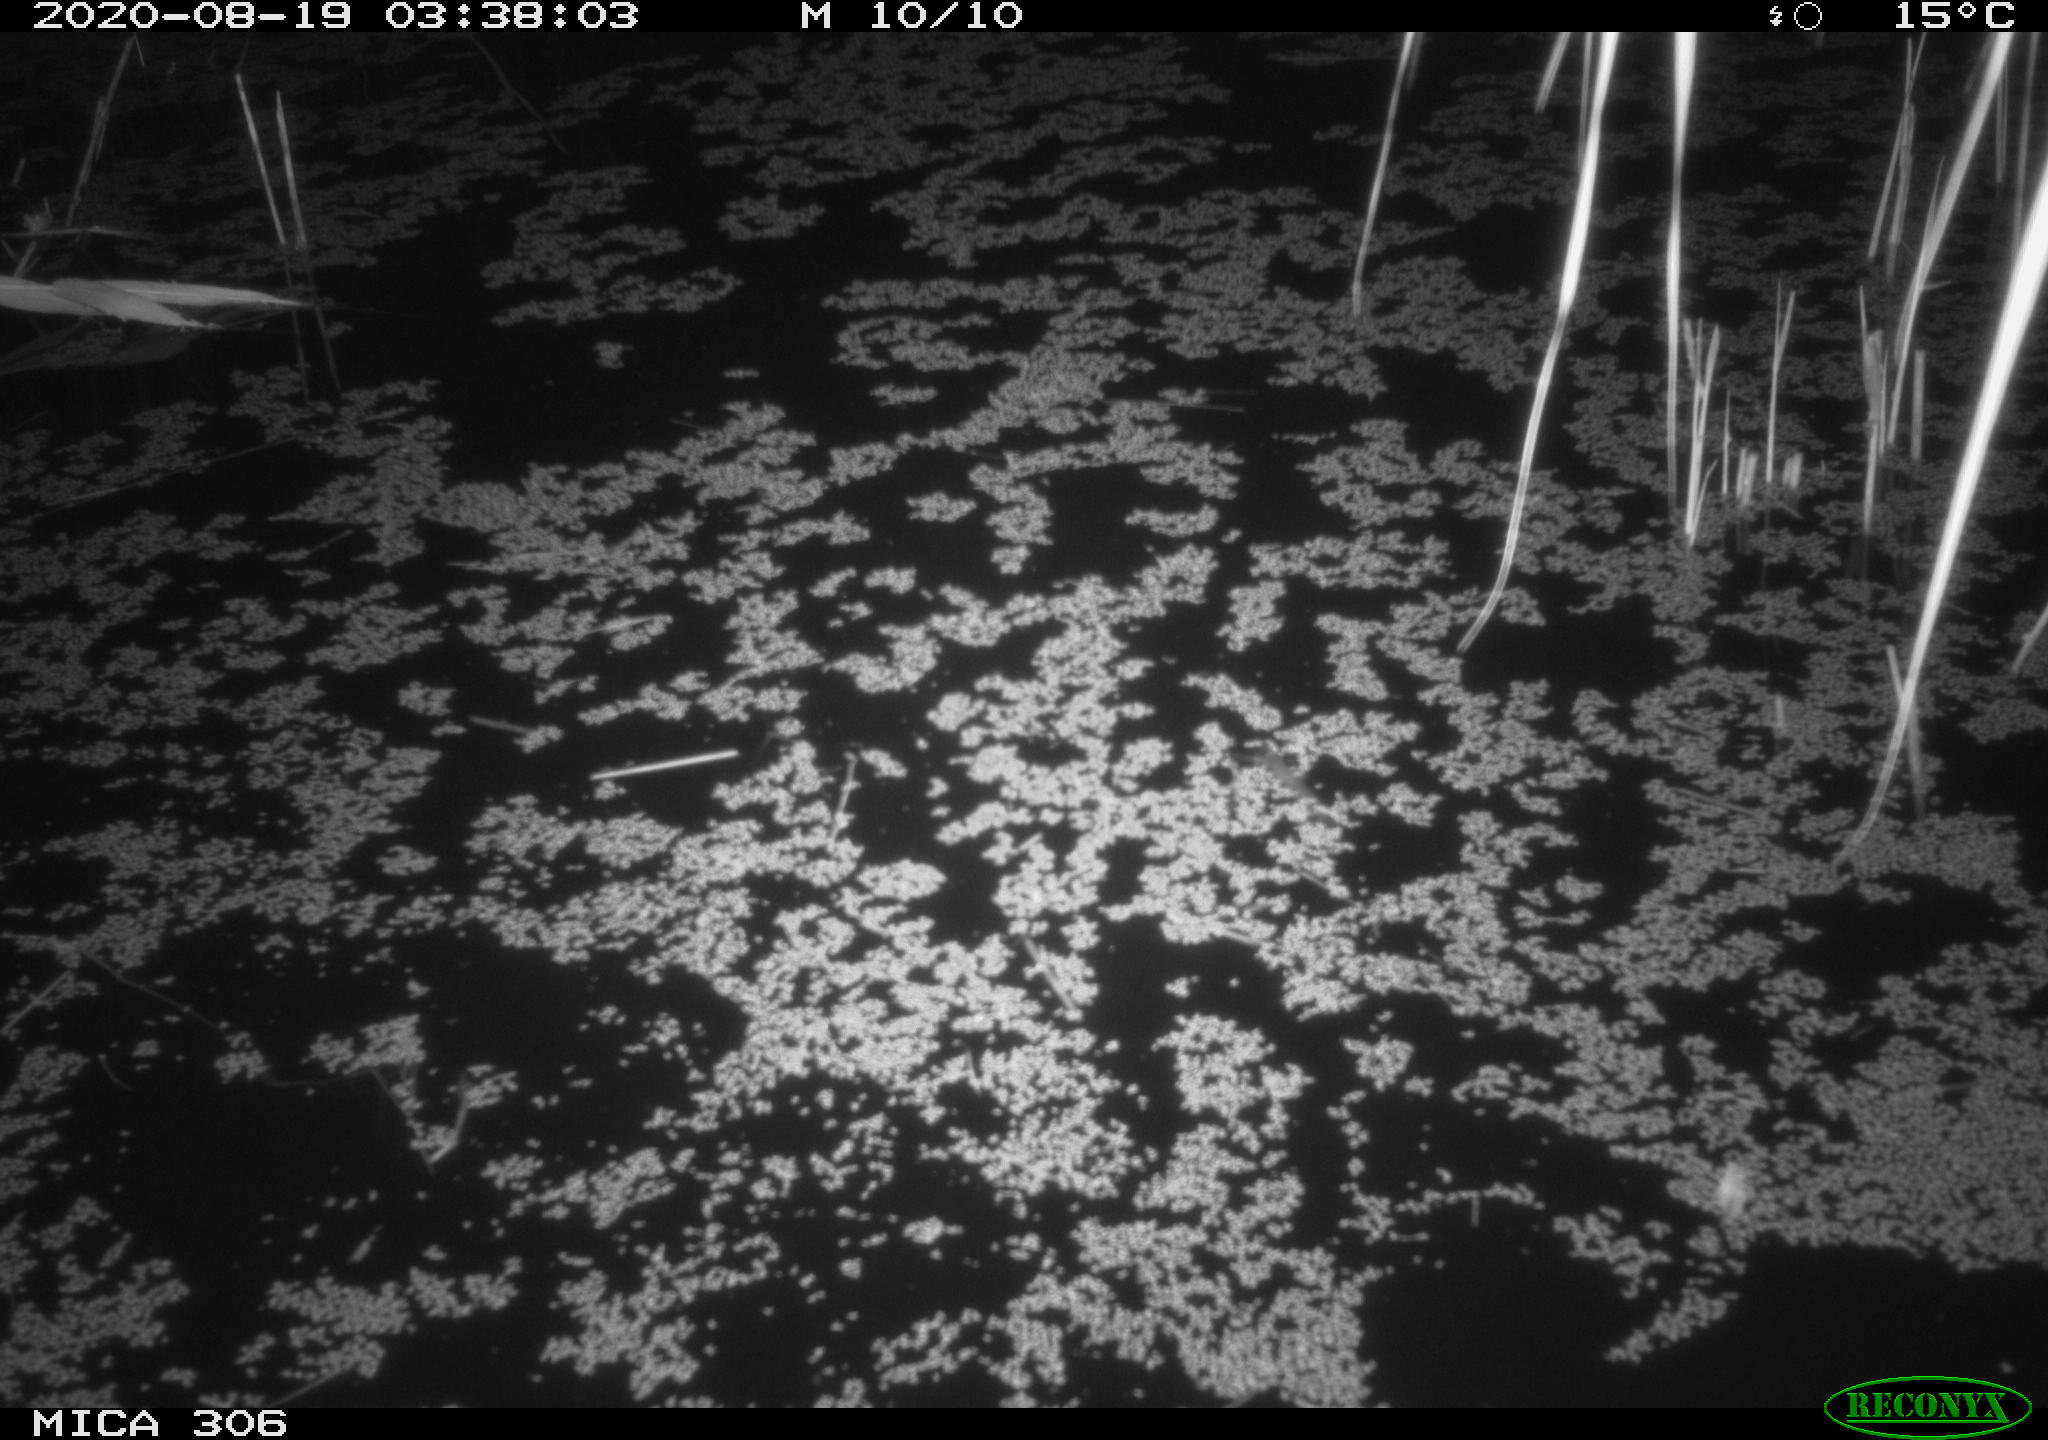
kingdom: Animalia
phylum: Chordata
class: Mammalia
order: Rodentia
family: Muridae
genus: Rattus
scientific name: Rattus norvegicus
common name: Brown rat
